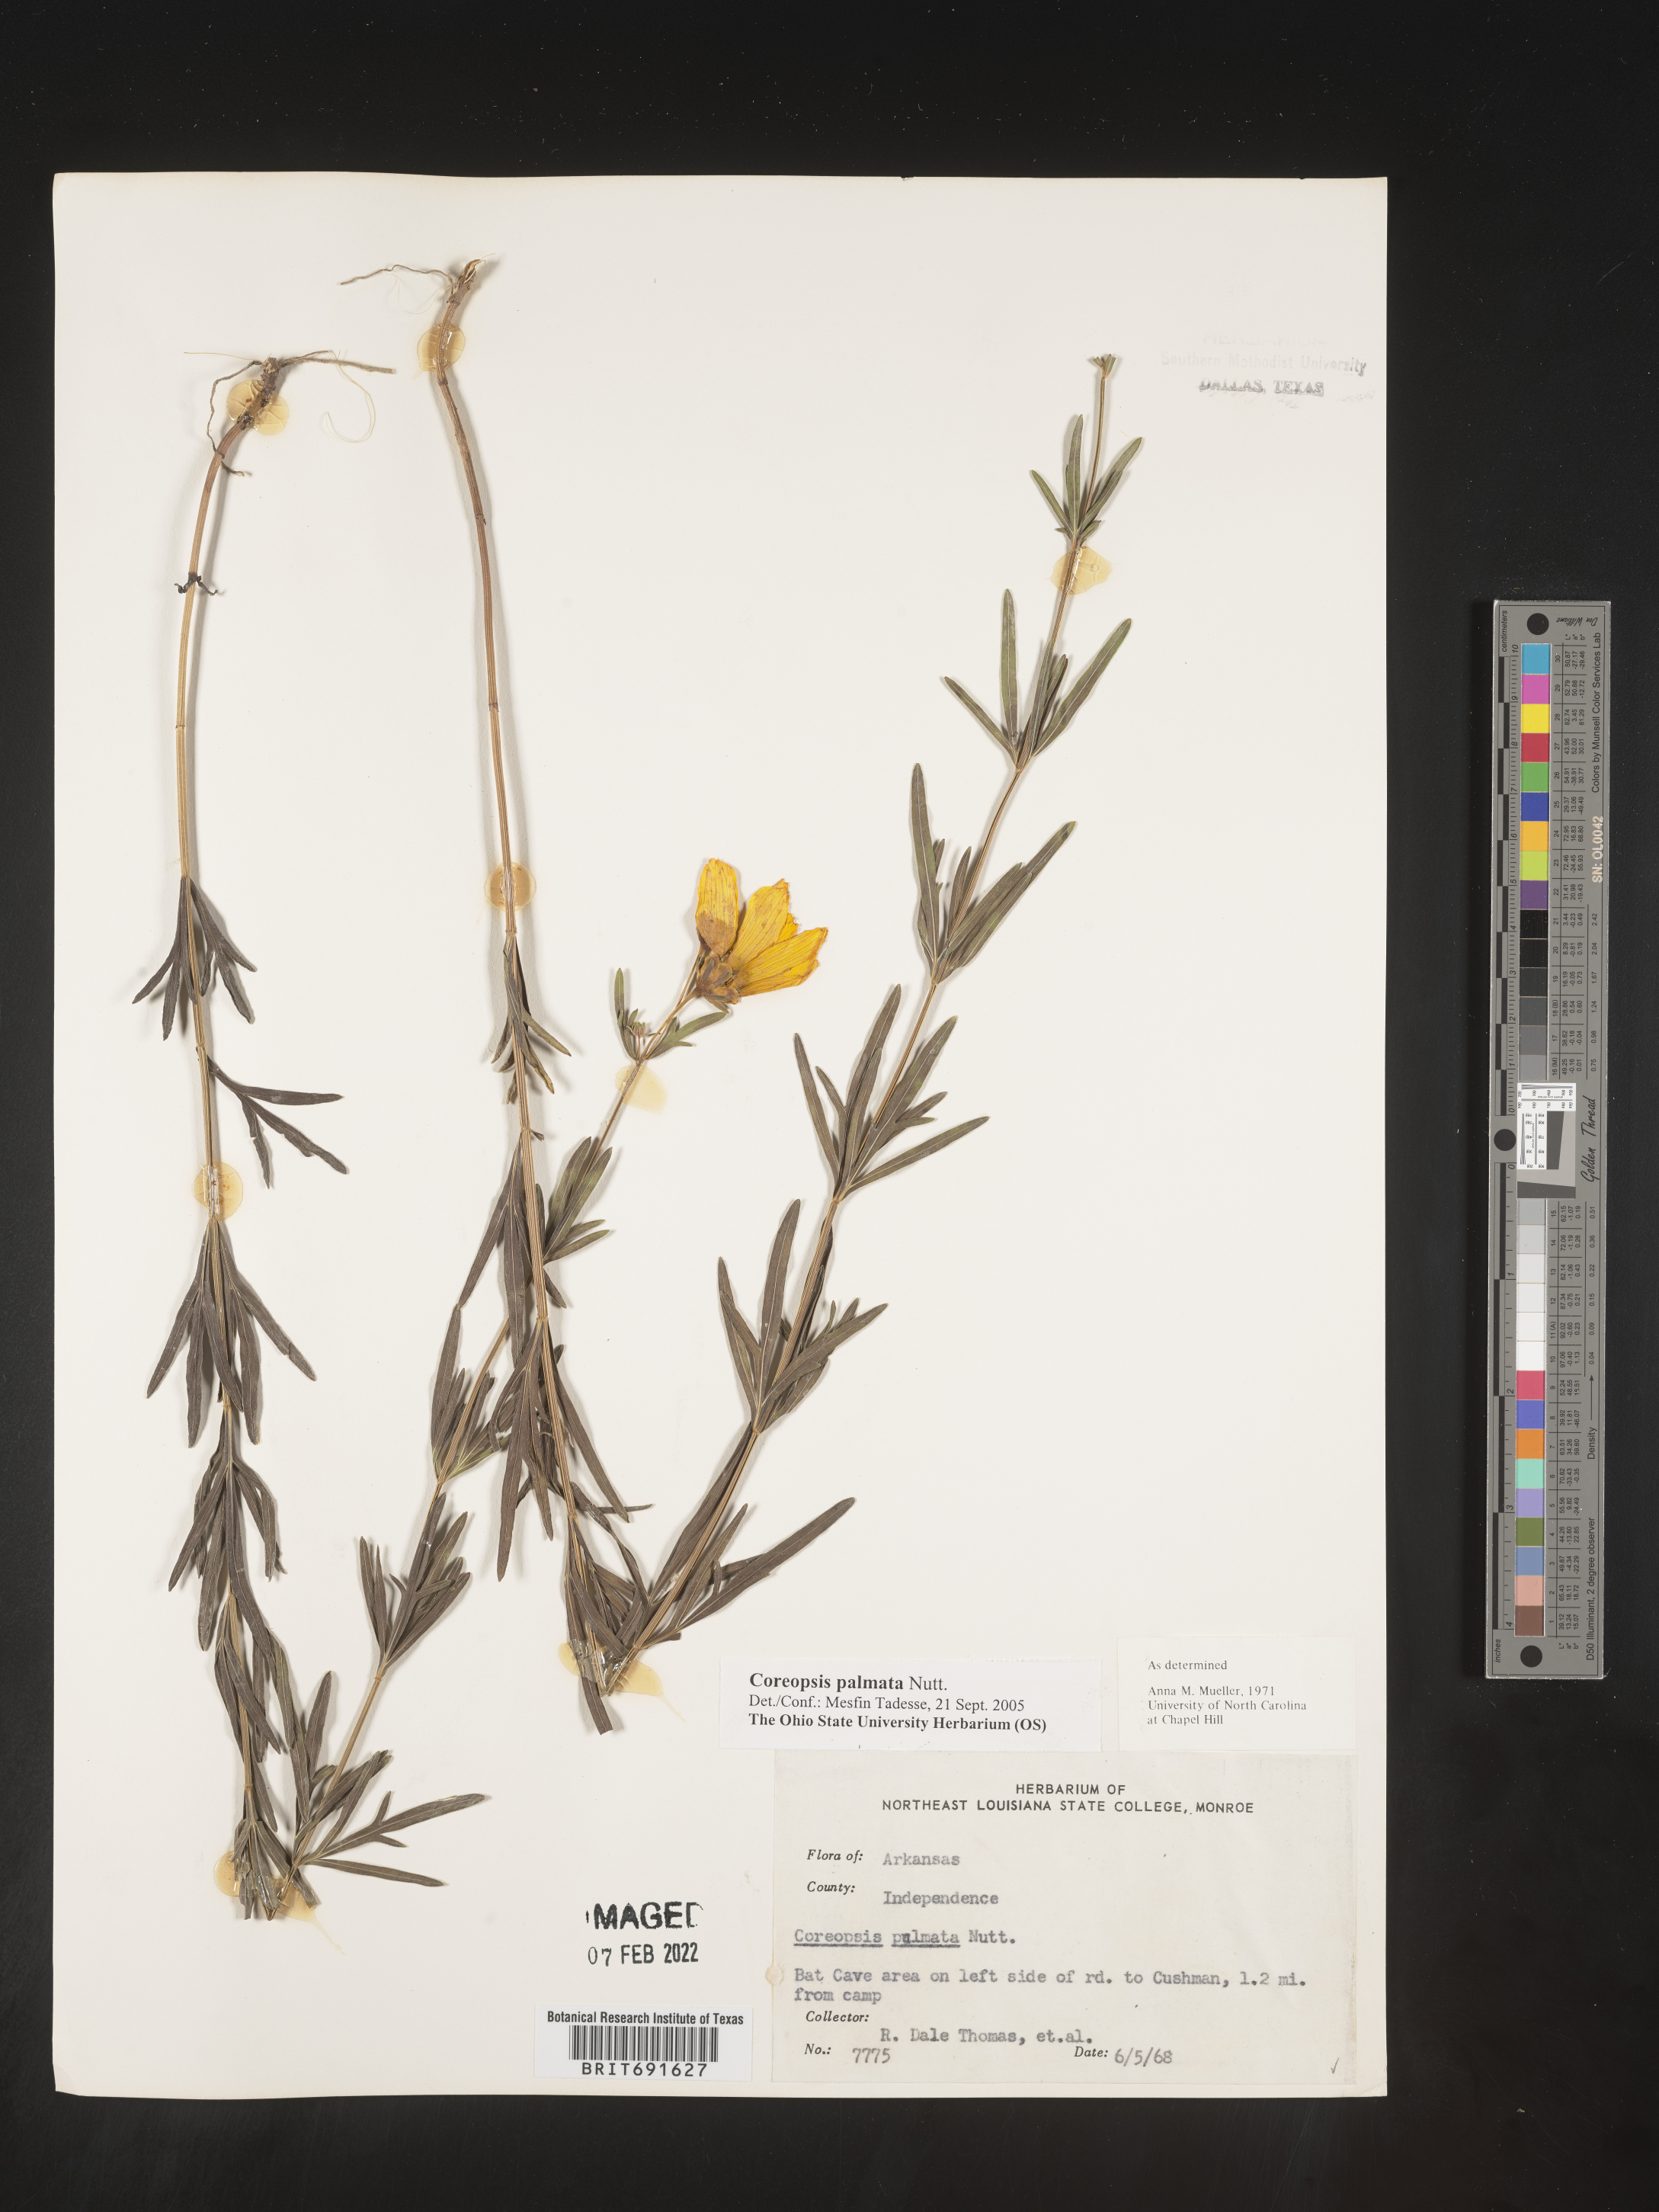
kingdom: Plantae
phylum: Tracheophyta
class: Magnoliopsida
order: Asterales
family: Asteraceae
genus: Coreopsis
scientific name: Coreopsis palmata
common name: Prairie coreopsis
